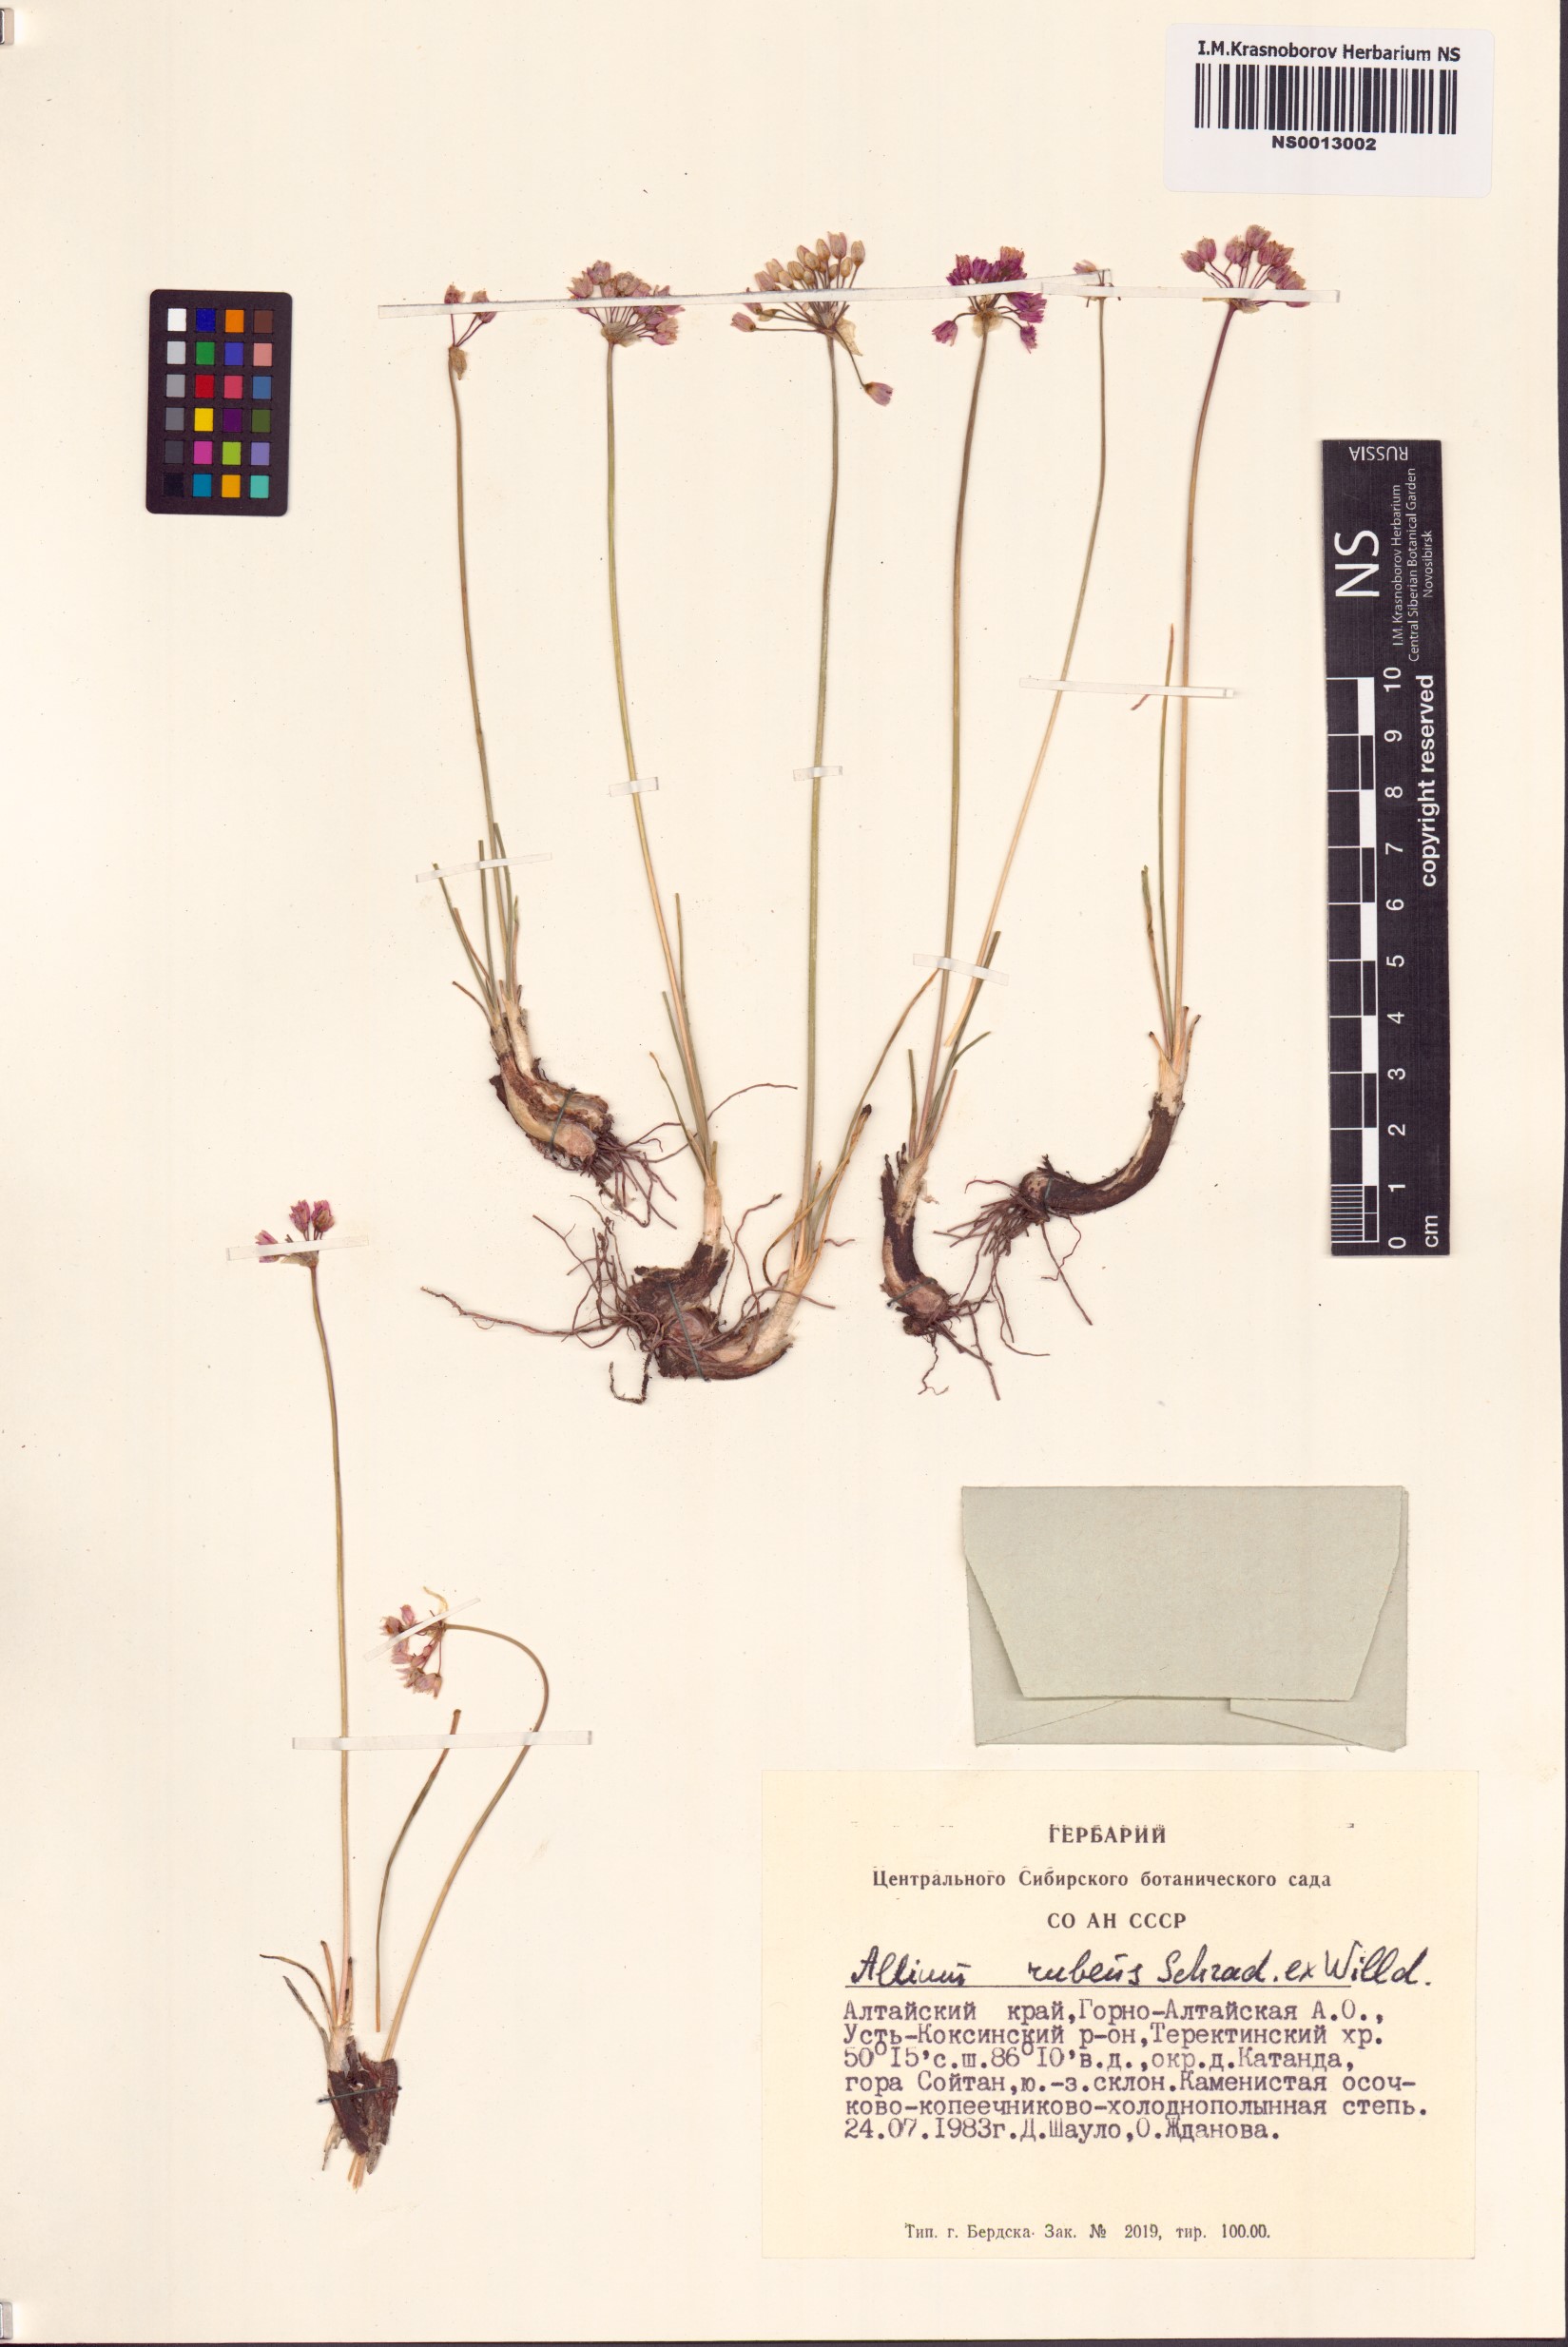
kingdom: Plantae
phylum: Tracheophyta
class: Liliopsida
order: Asparagales
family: Amaryllidaceae
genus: Allium
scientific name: Allium rubens
